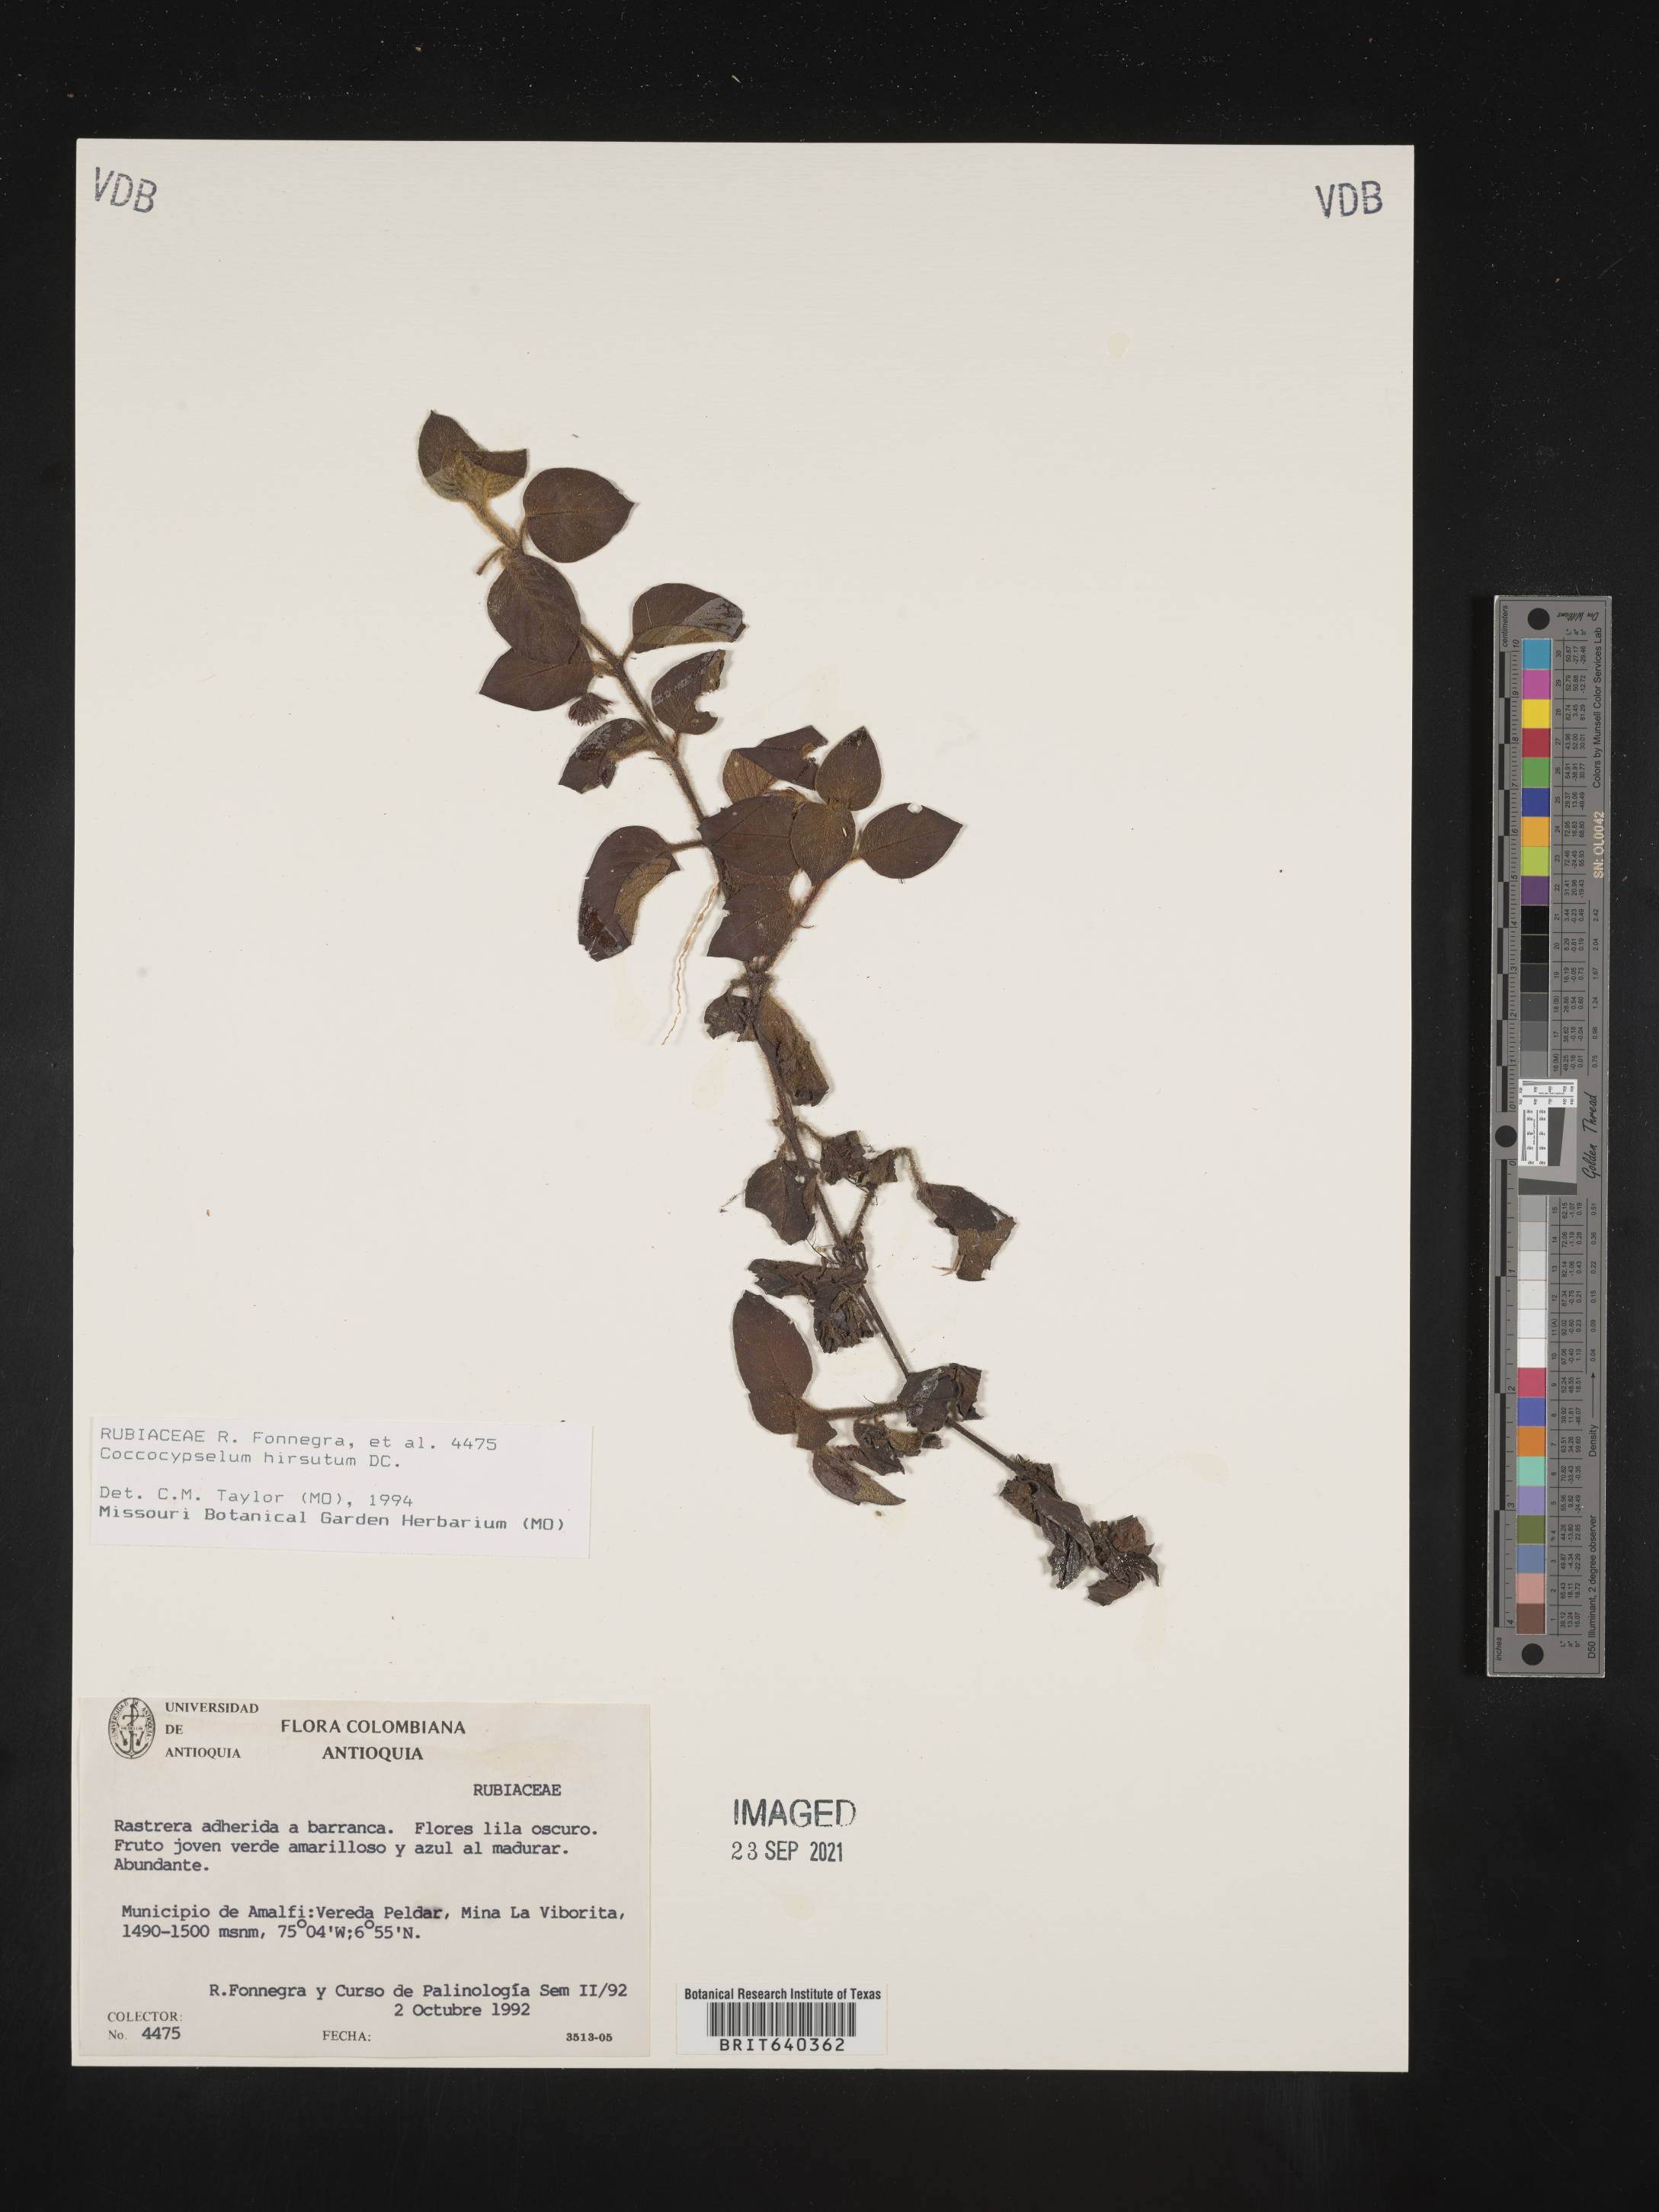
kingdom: Plantae
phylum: Tracheophyta
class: Magnoliopsida
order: Gentianales
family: Rubiaceae
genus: Coccocypselum
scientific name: Coccocypselum
